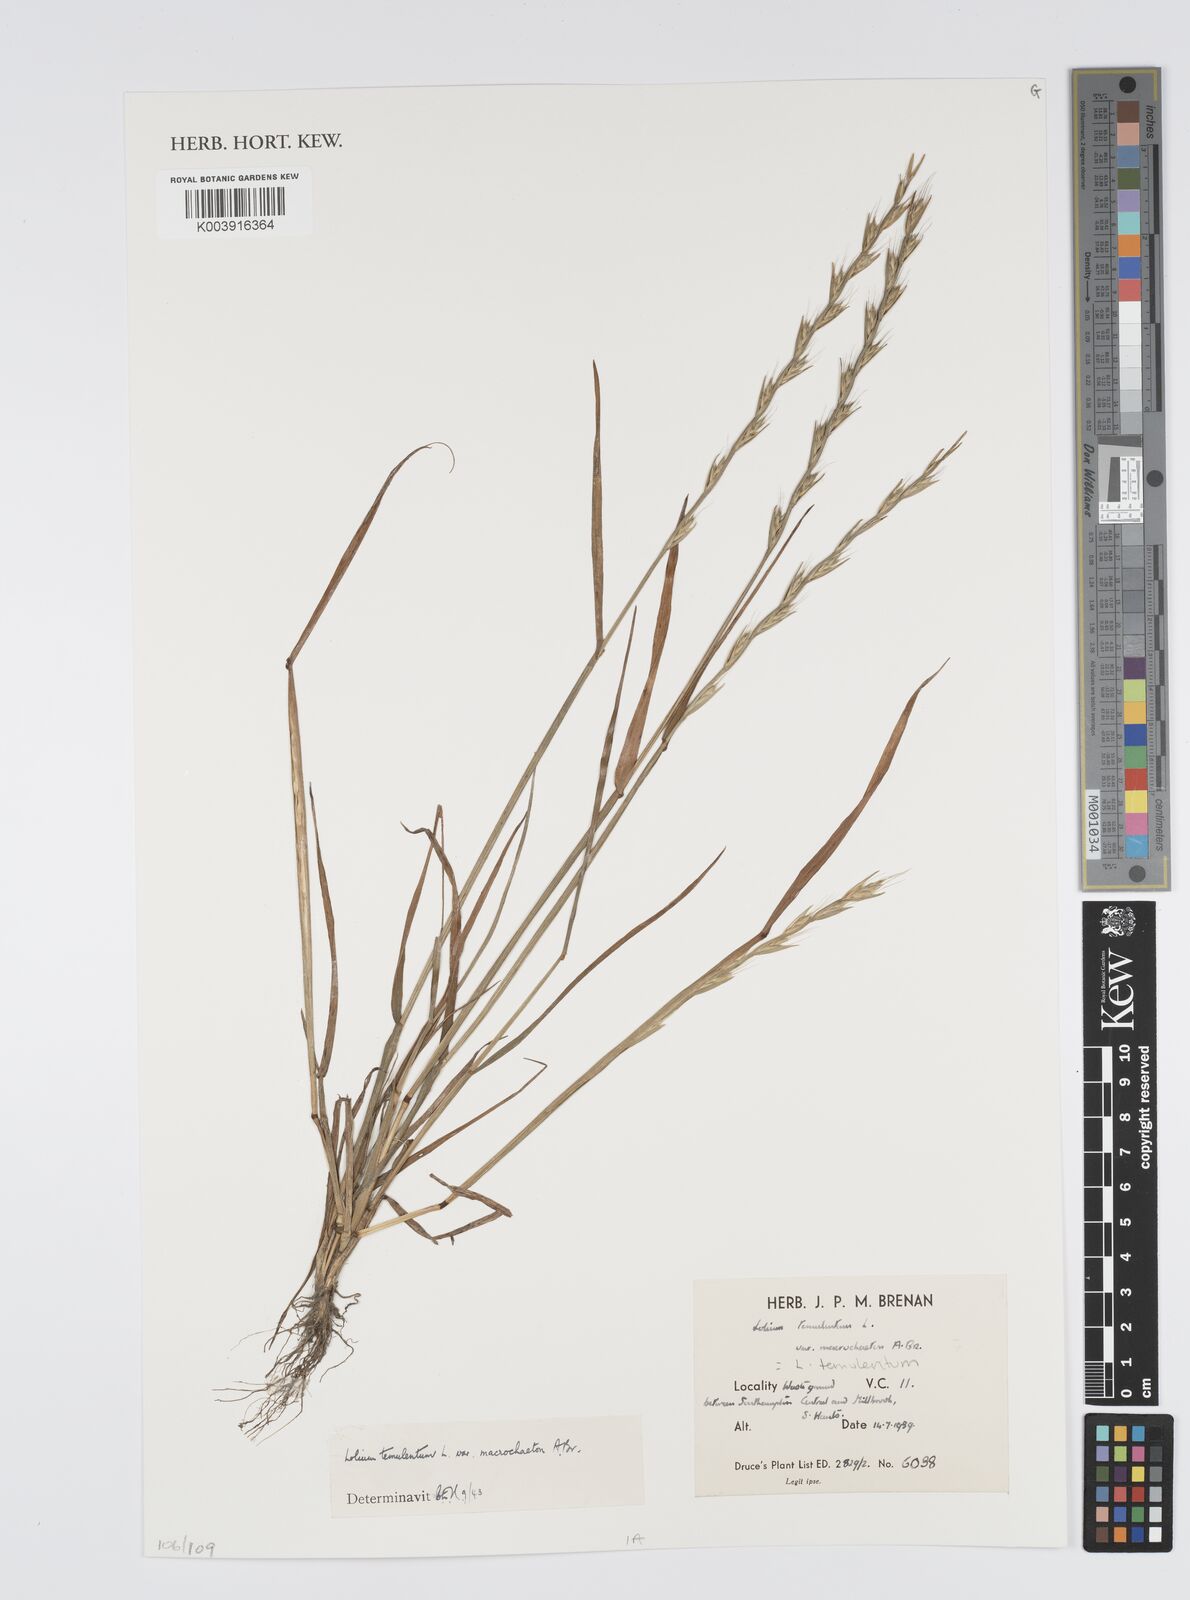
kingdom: Plantae
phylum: Tracheophyta
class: Liliopsida
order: Poales
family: Poaceae
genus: Lolium
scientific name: Lolium temulentum
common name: Darnel
